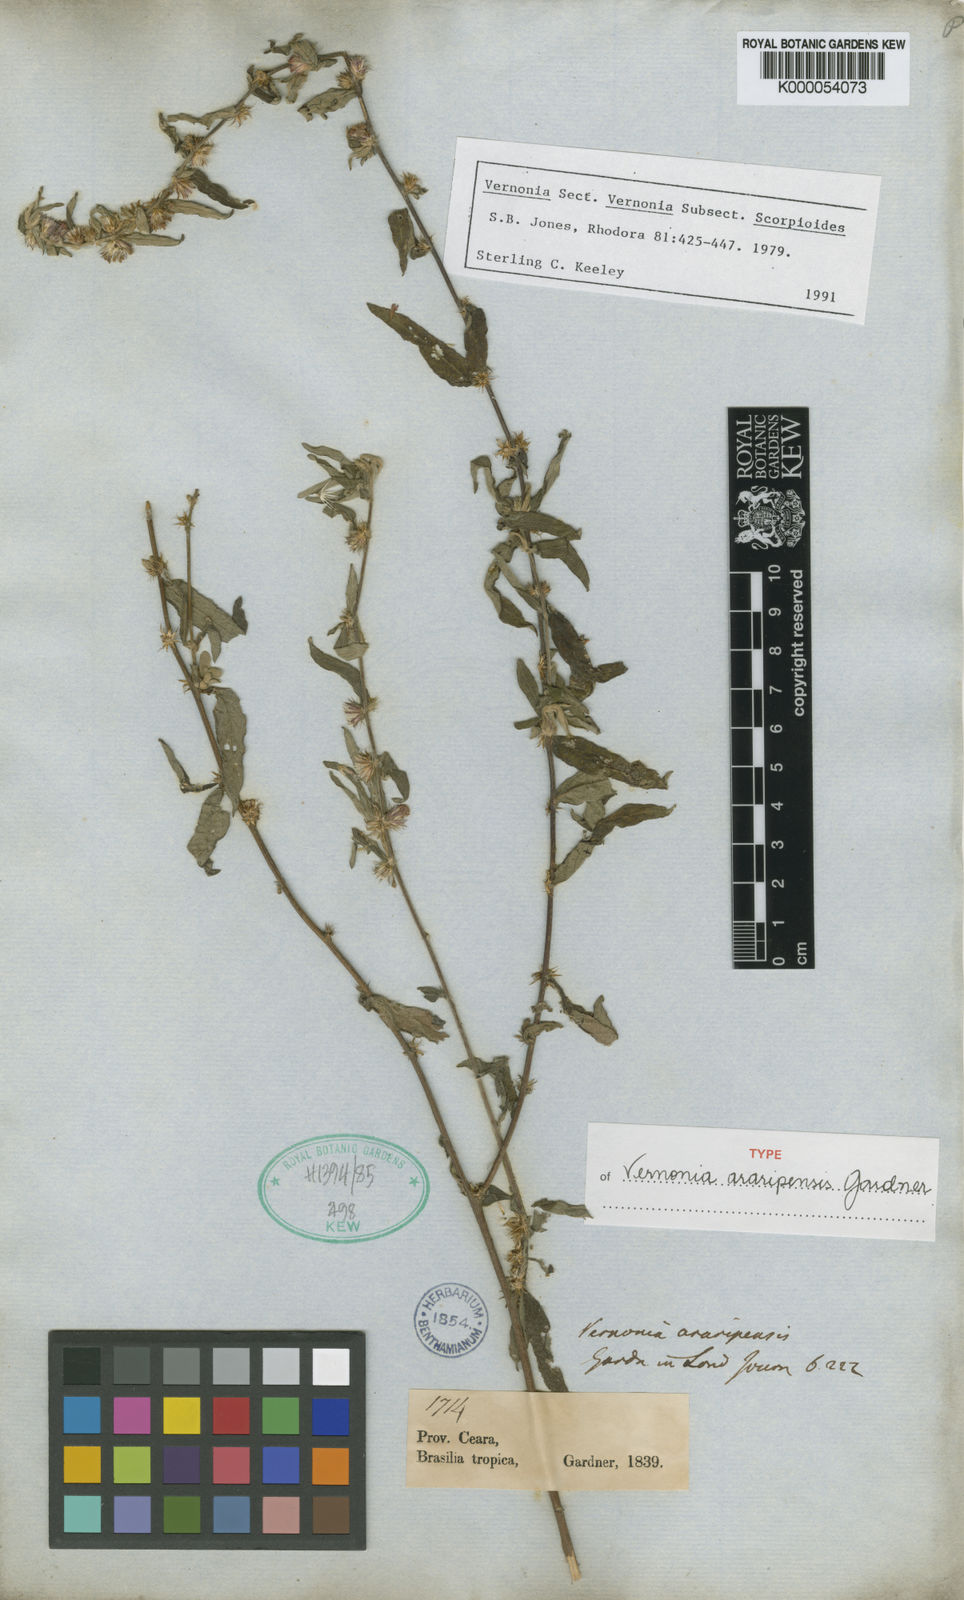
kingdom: Plantae
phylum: Tracheophyta
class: Magnoliopsida
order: Asterales
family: Asteraceae
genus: Lepidaploa
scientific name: Lepidaploa araripensis
